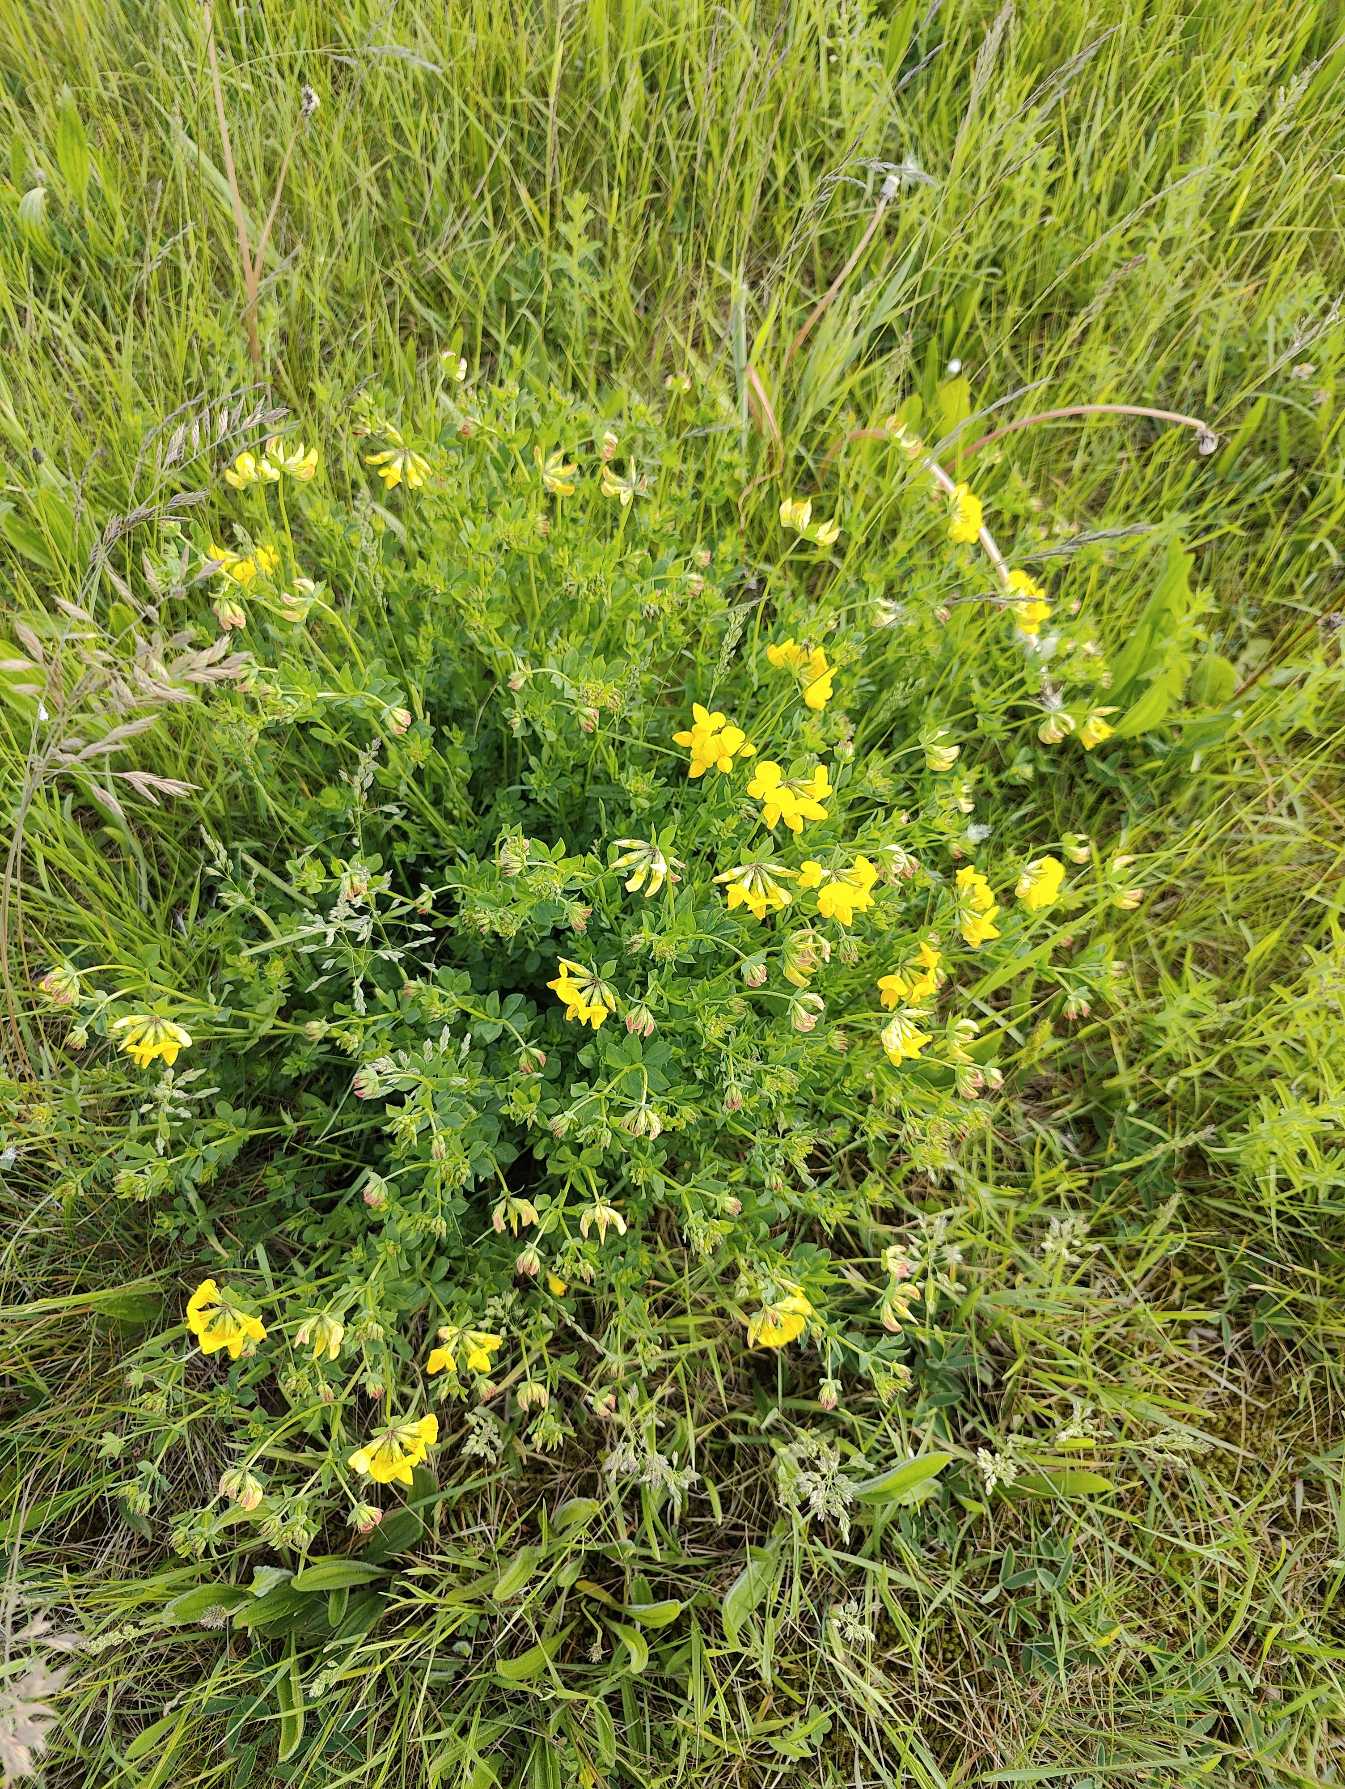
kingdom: Plantae
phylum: Tracheophyta
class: Magnoliopsida
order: Fabales
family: Fabaceae
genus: Lotus
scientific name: Lotus corniculatus
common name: Almindelig kællingetand
